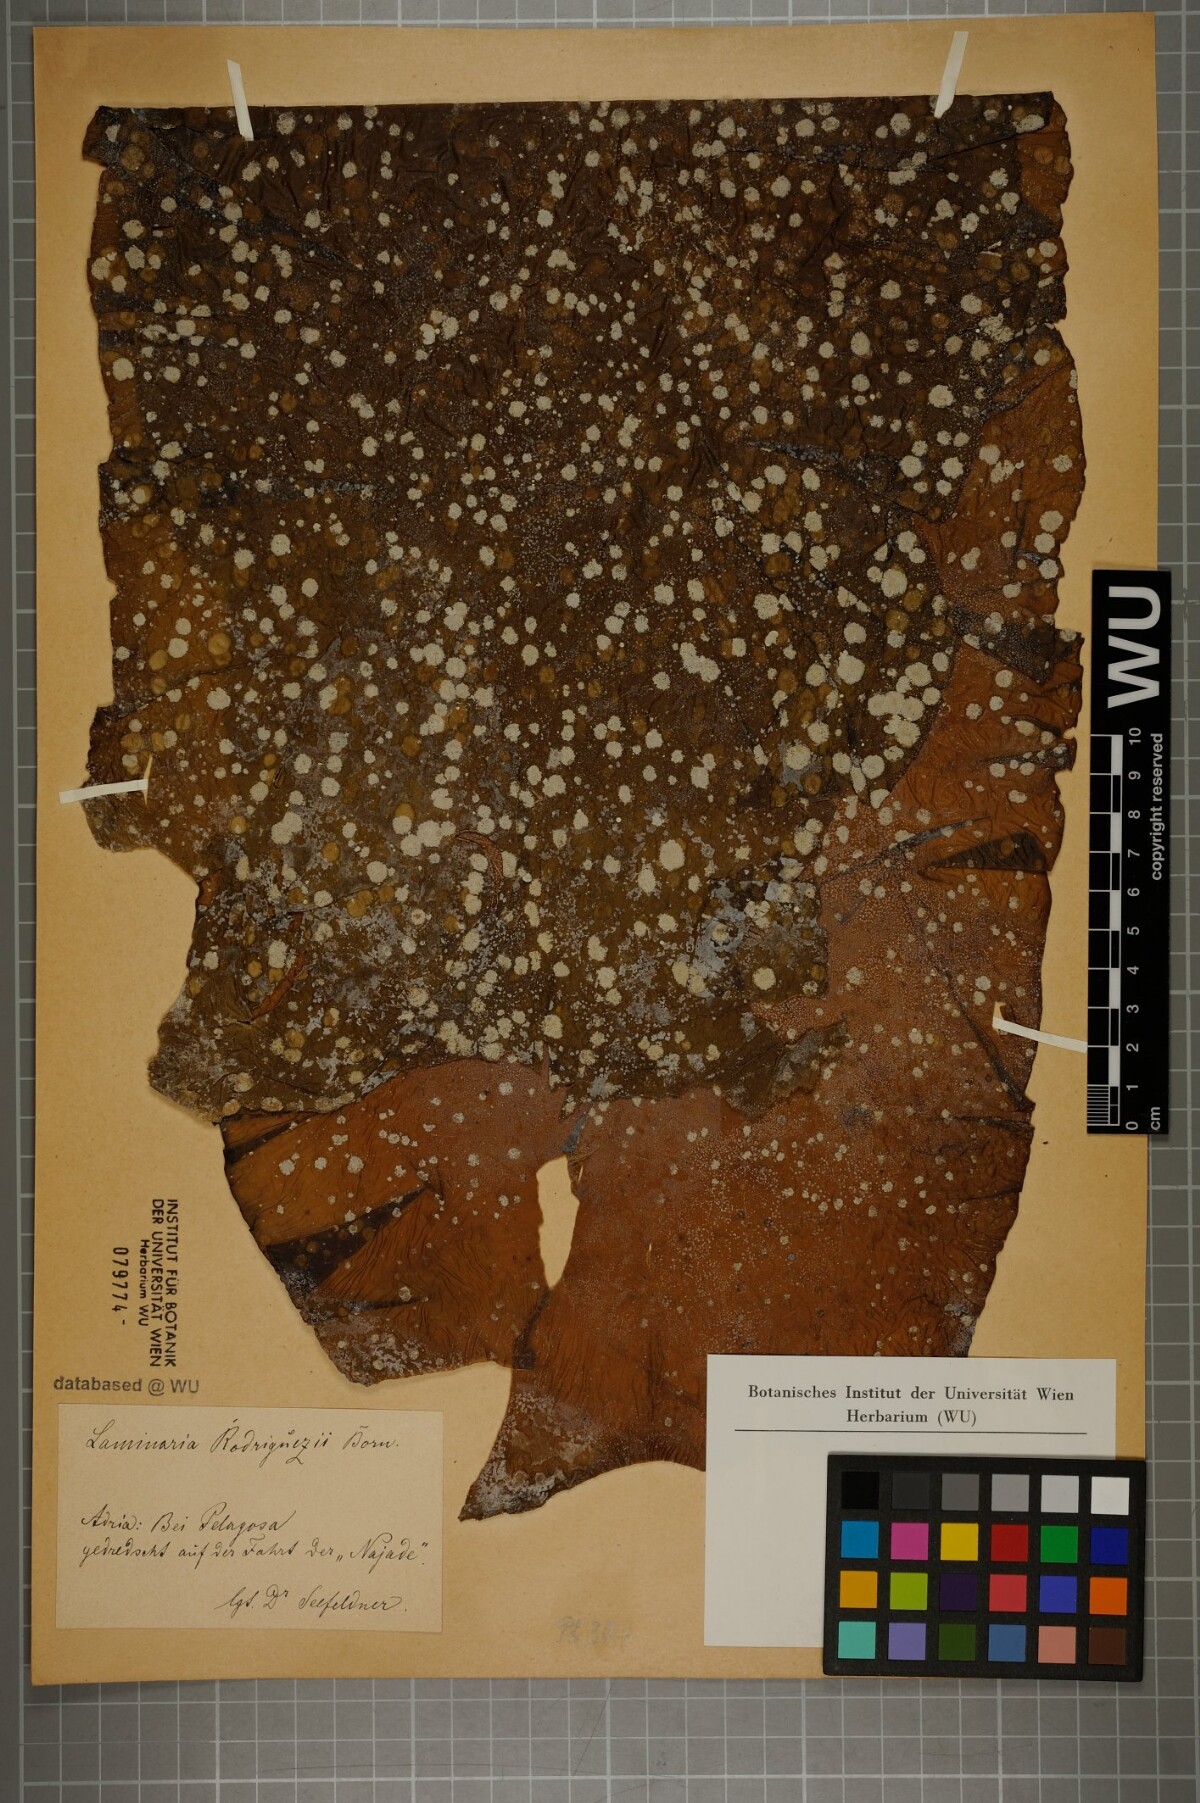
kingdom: Chromista
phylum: Ochrophyta
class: Phaeophyceae
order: Laminariales
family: Laminariaceae
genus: Laminaria
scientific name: Laminaria rodriguezii
